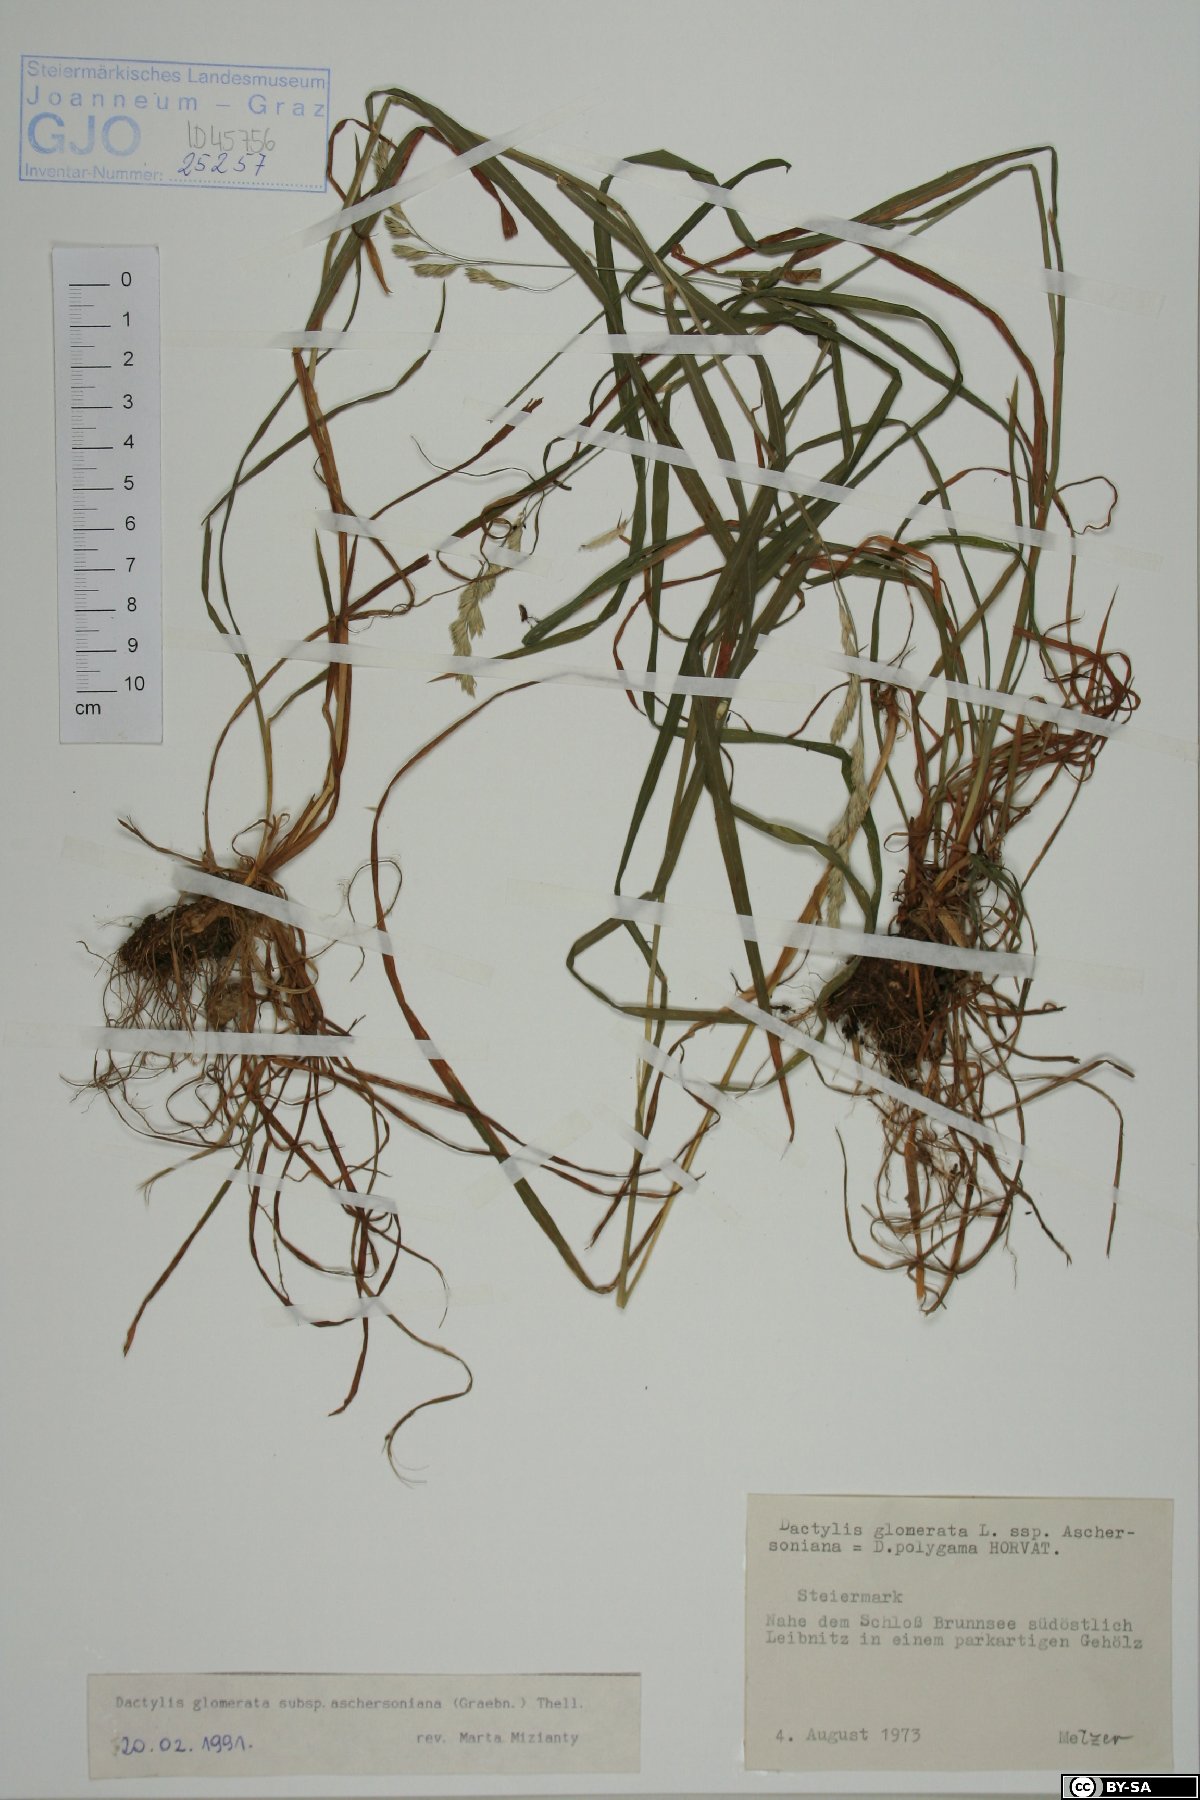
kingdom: Plantae
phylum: Tracheophyta
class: Liliopsida
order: Poales
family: Poaceae
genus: Dactylis
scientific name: Dactylis glomerata
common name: Orchardgrass
